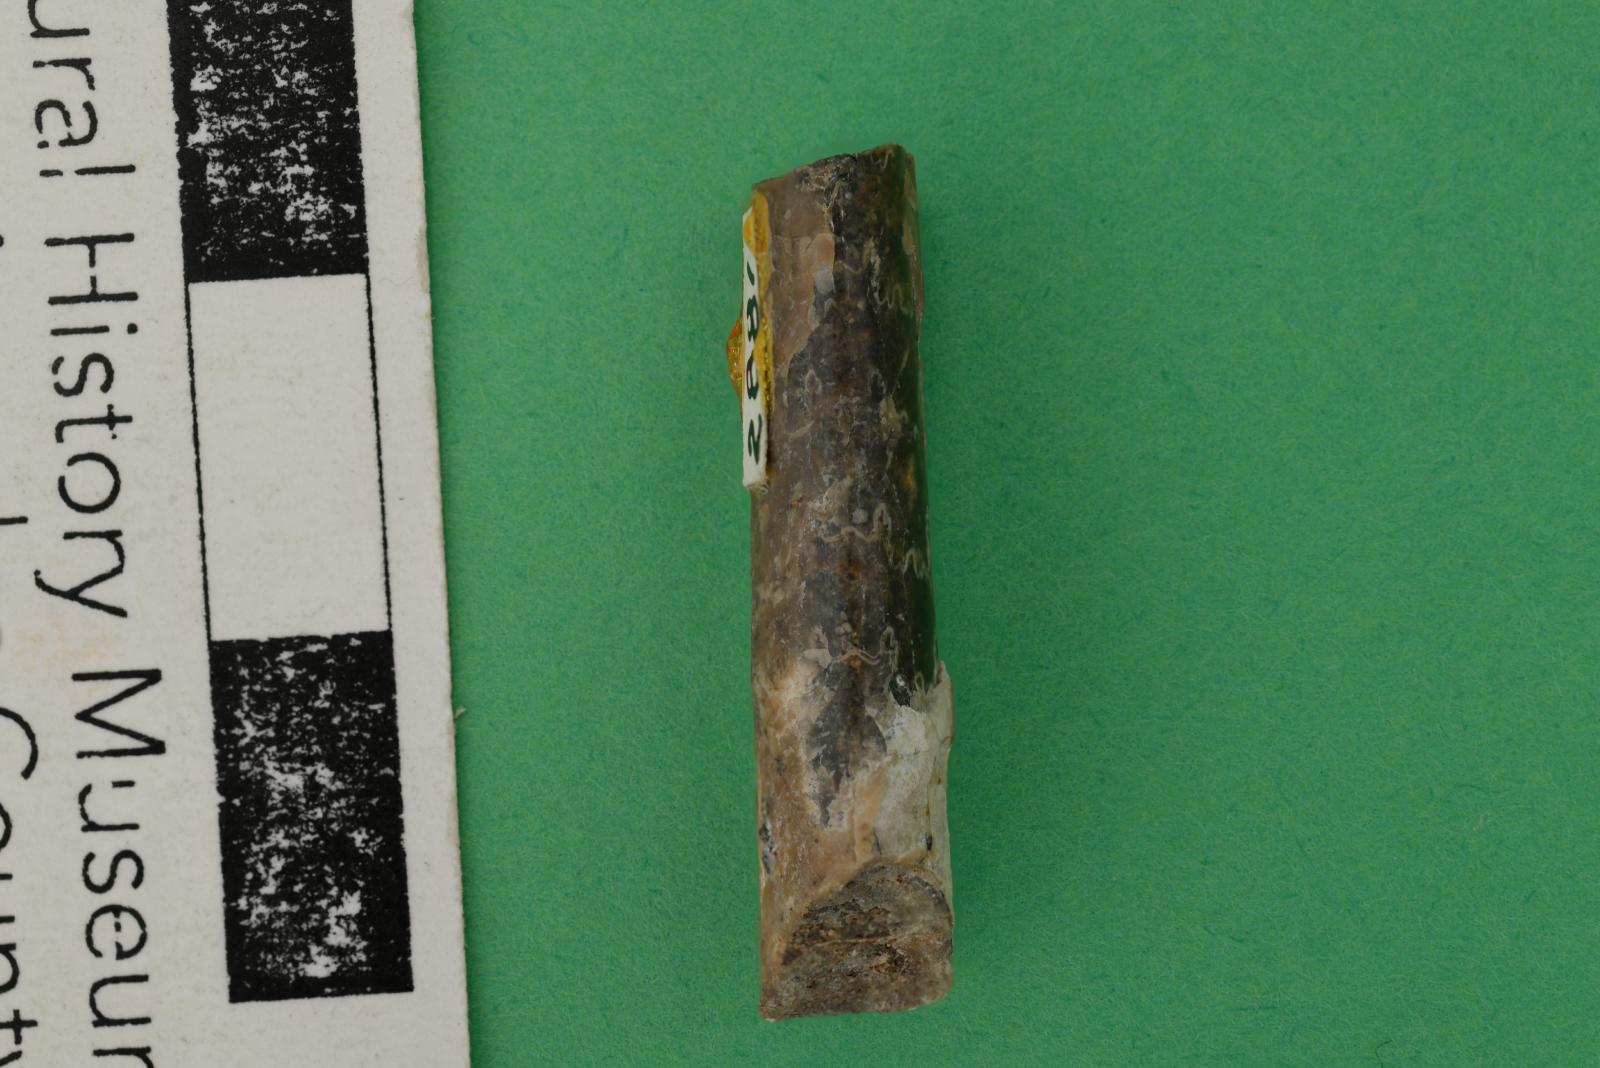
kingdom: Animalia
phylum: Mollusca
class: Cephalopoda
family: Baculitidae
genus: Baculites
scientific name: Baculites kirki
